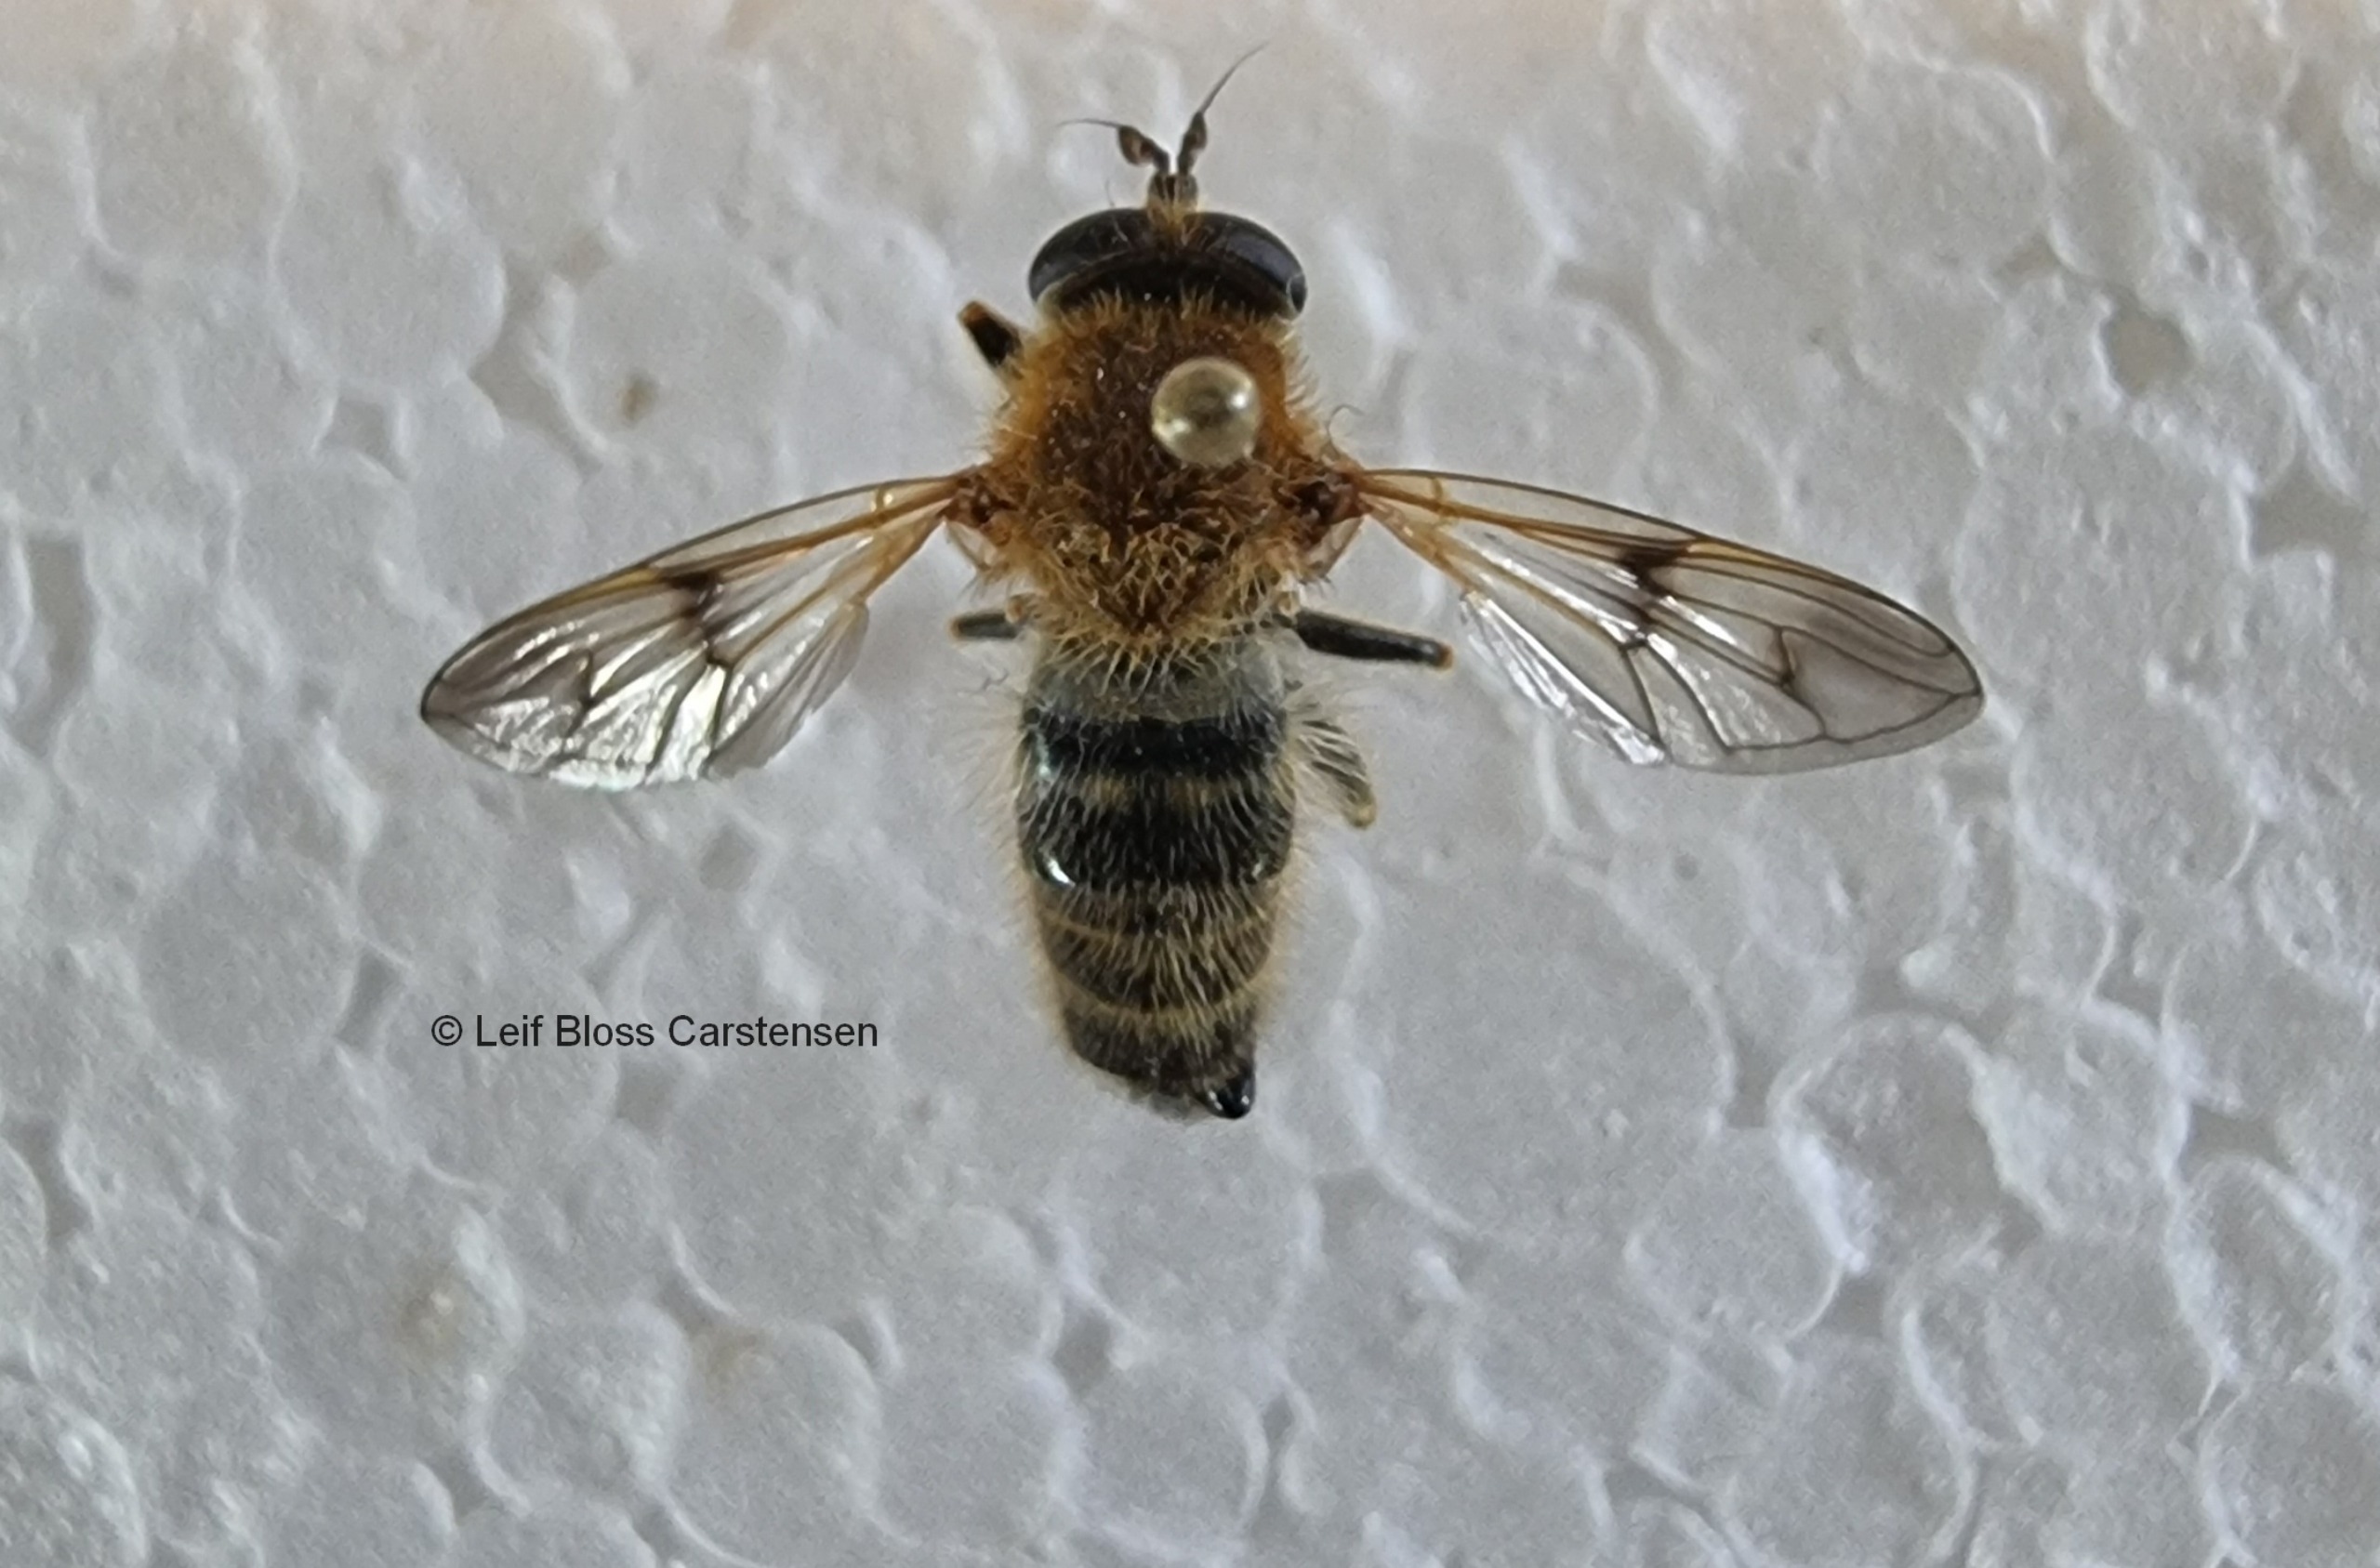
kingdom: Animalia
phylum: Arthropoda
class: Insecta
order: Diptera
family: Syrphidae
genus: Criorhina
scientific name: Criorhina asilica
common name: Bi-pelssvirreflue
